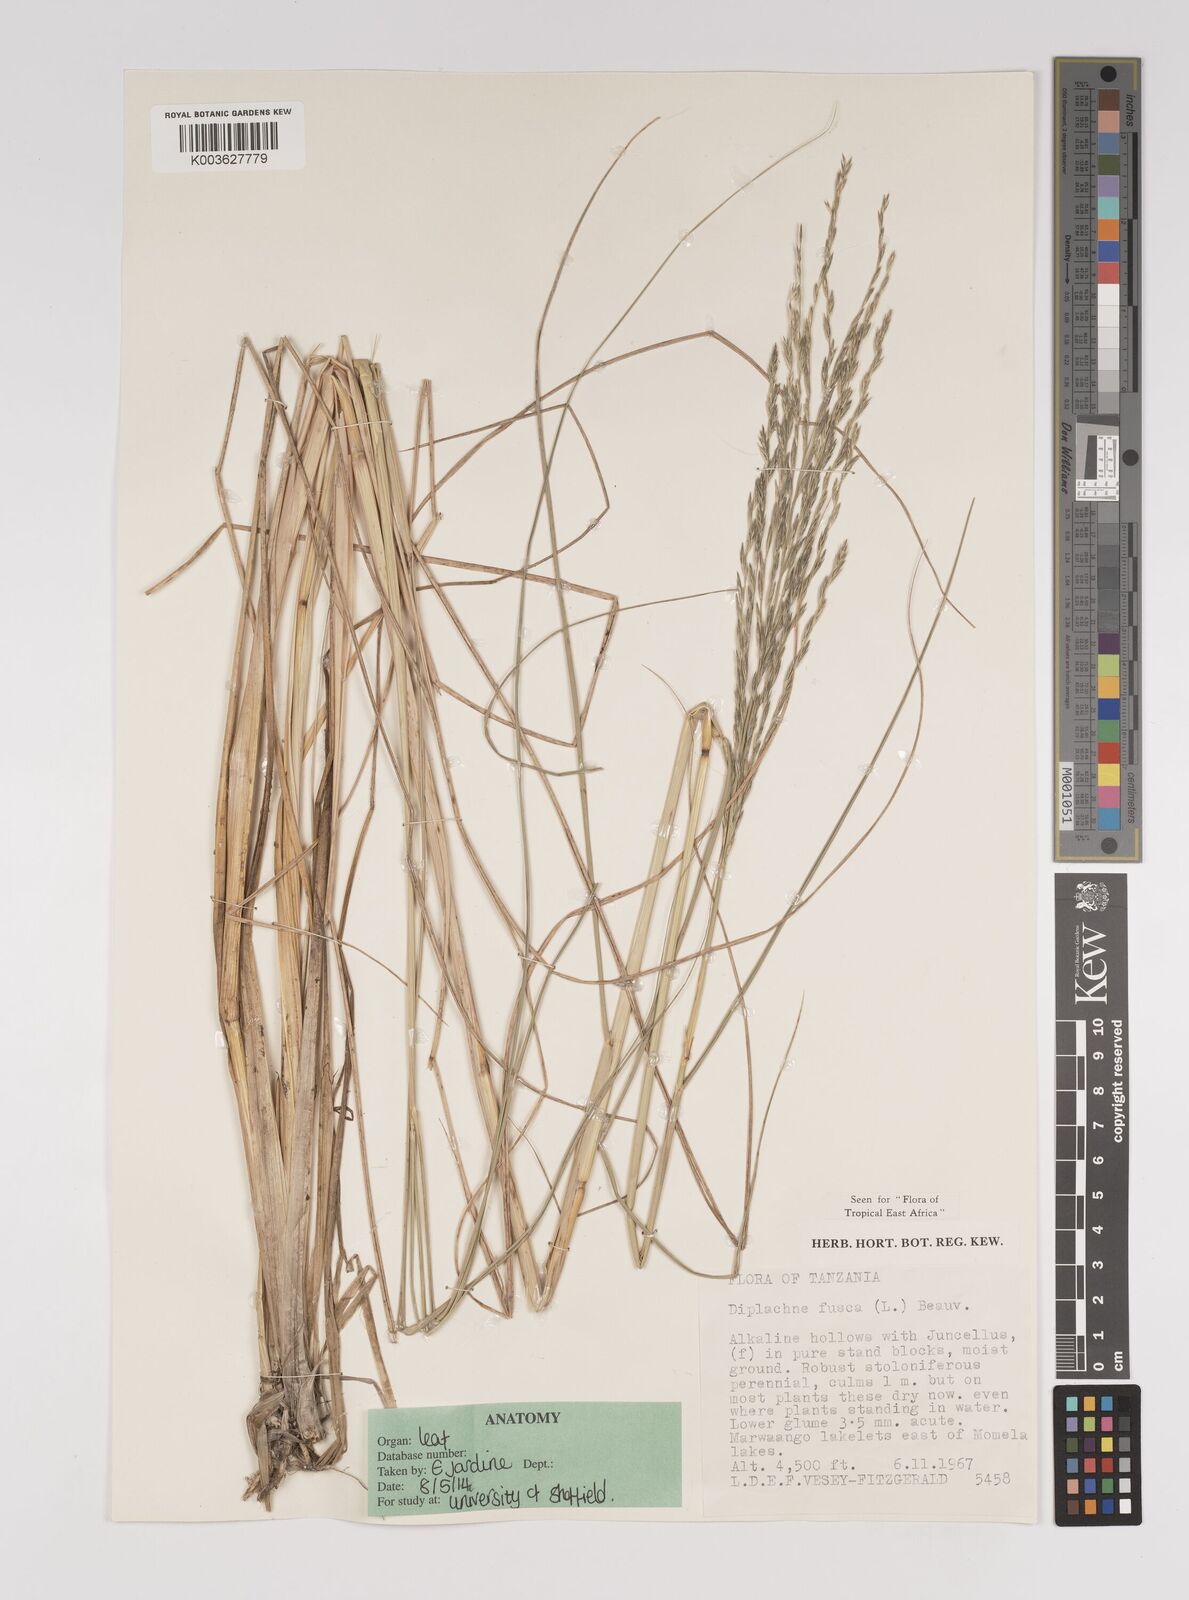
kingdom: Plantae
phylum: Tracheophyta
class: Liliopsida
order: Poales
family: Poaceae
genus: Diplachne
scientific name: Diplachne fusca
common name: Brown beetle grass
